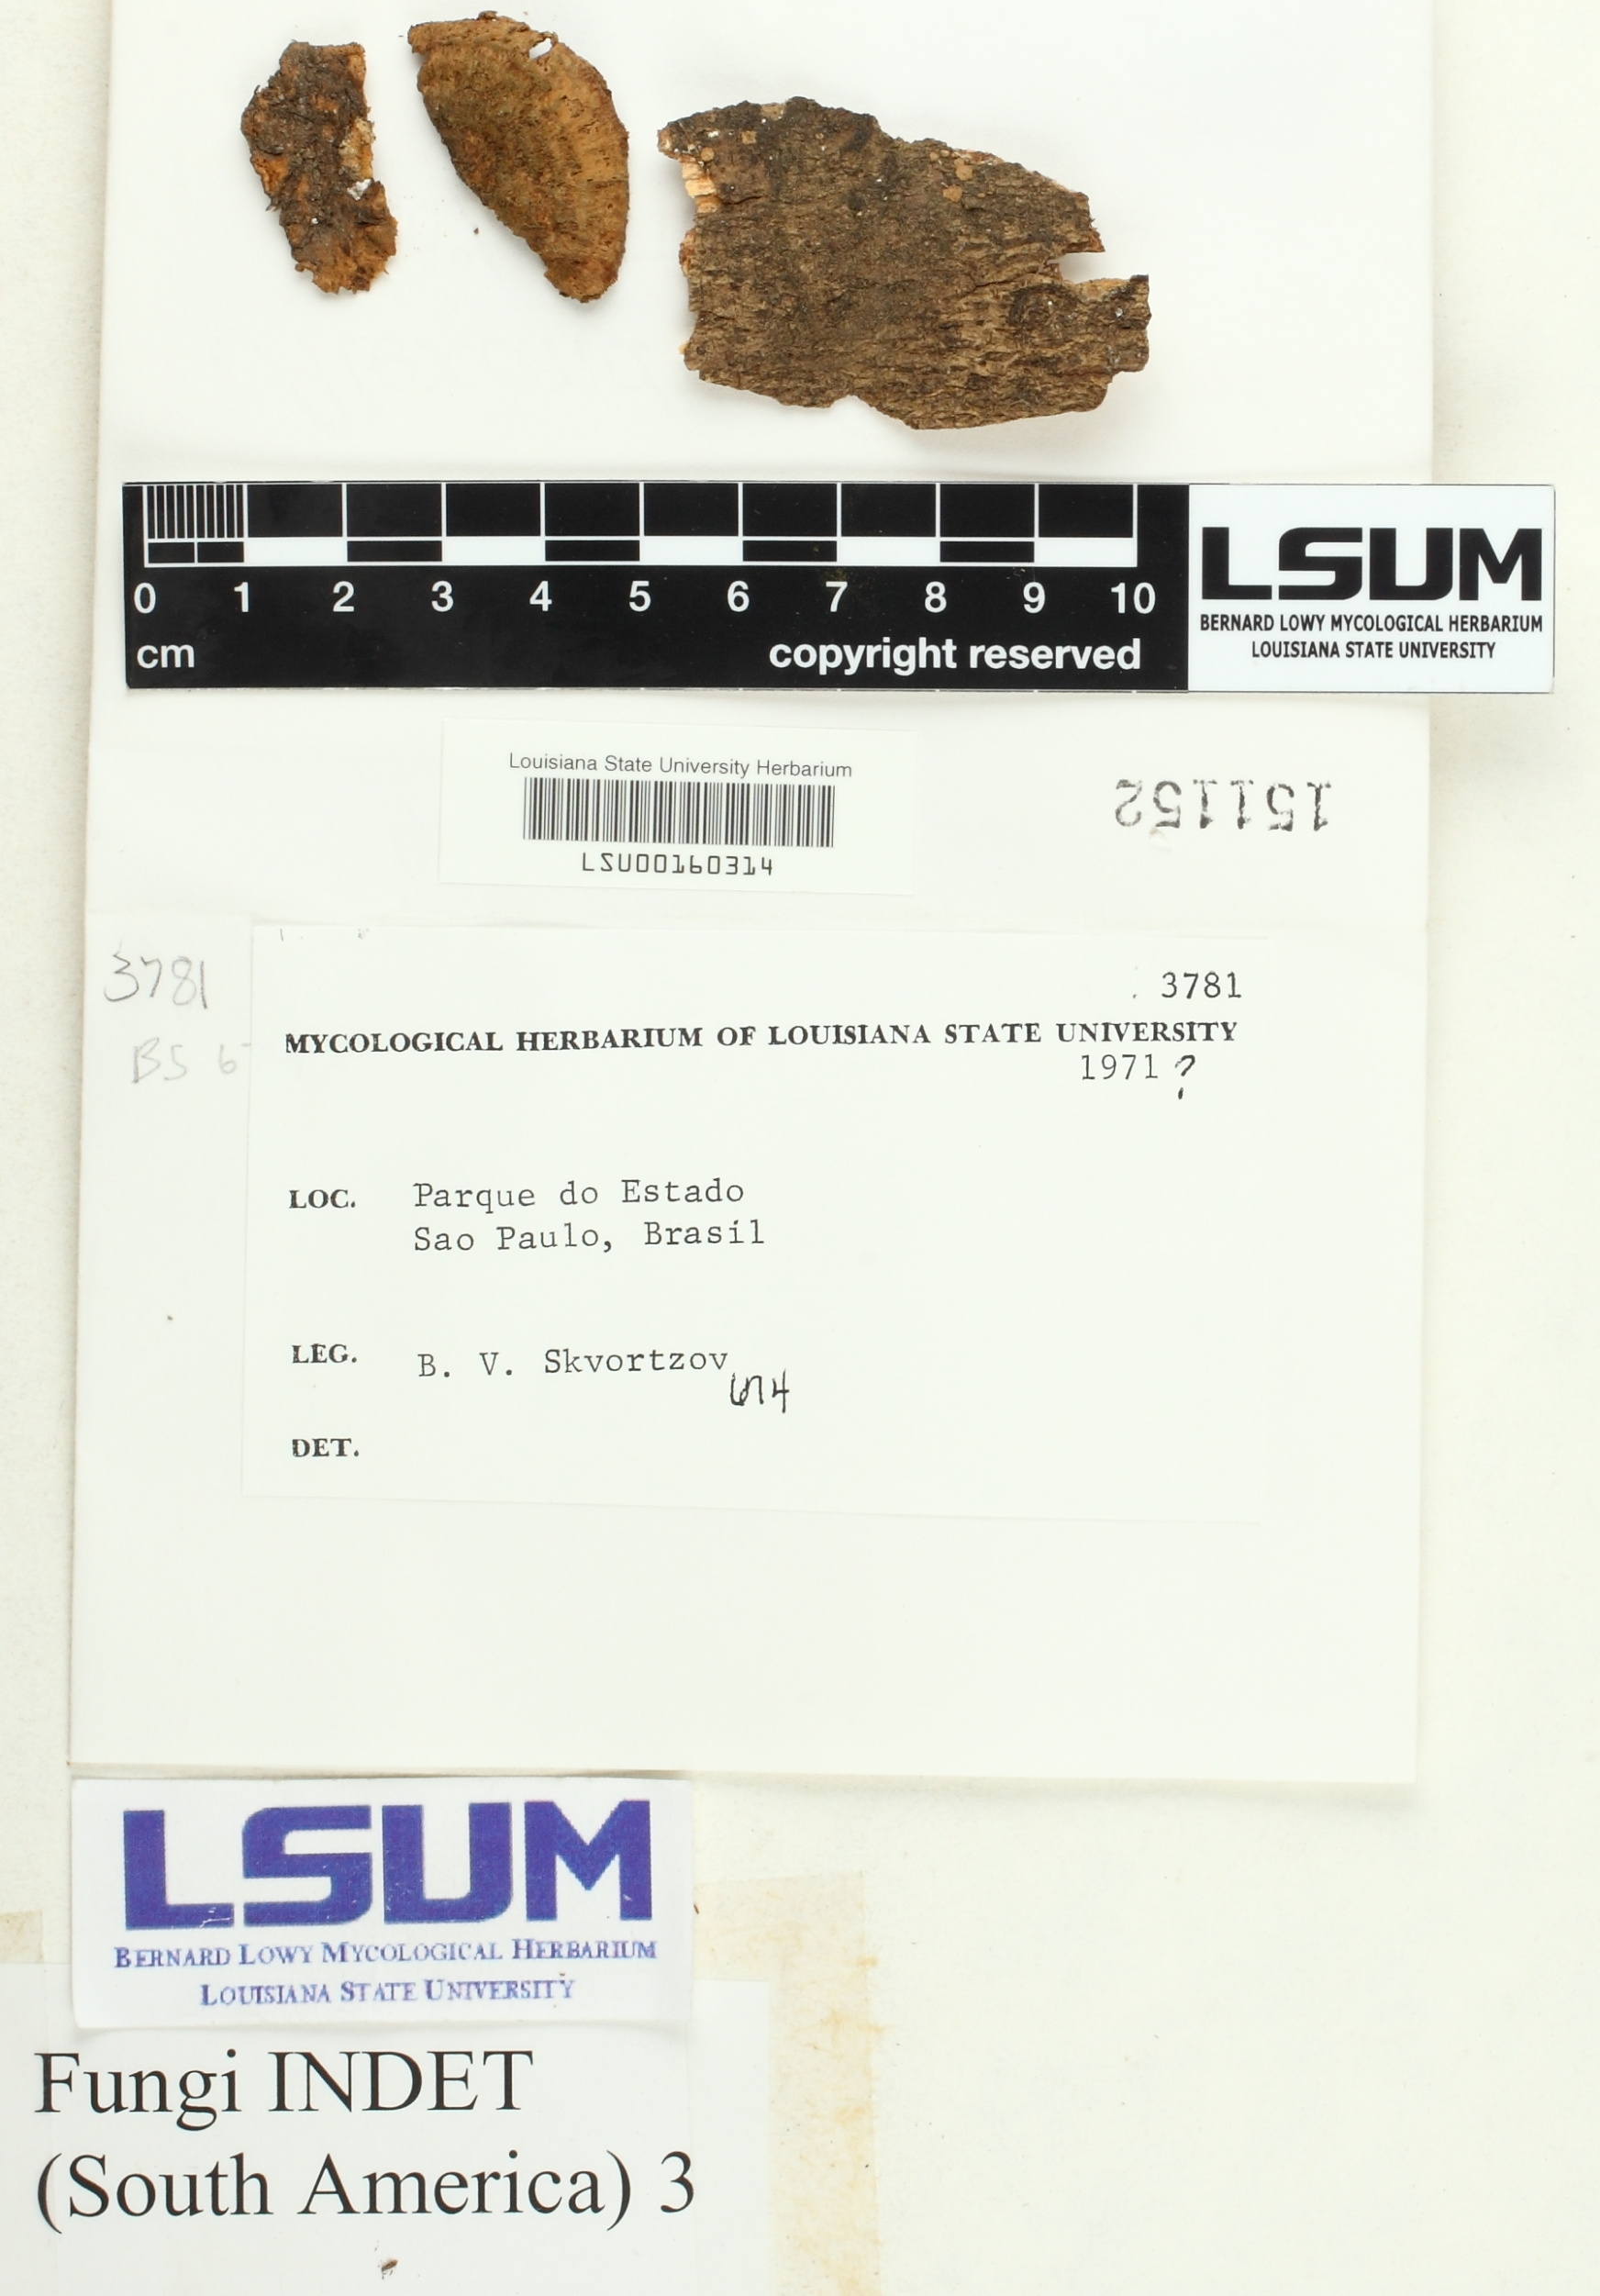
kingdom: Fungi
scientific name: Fungi
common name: Fungi
